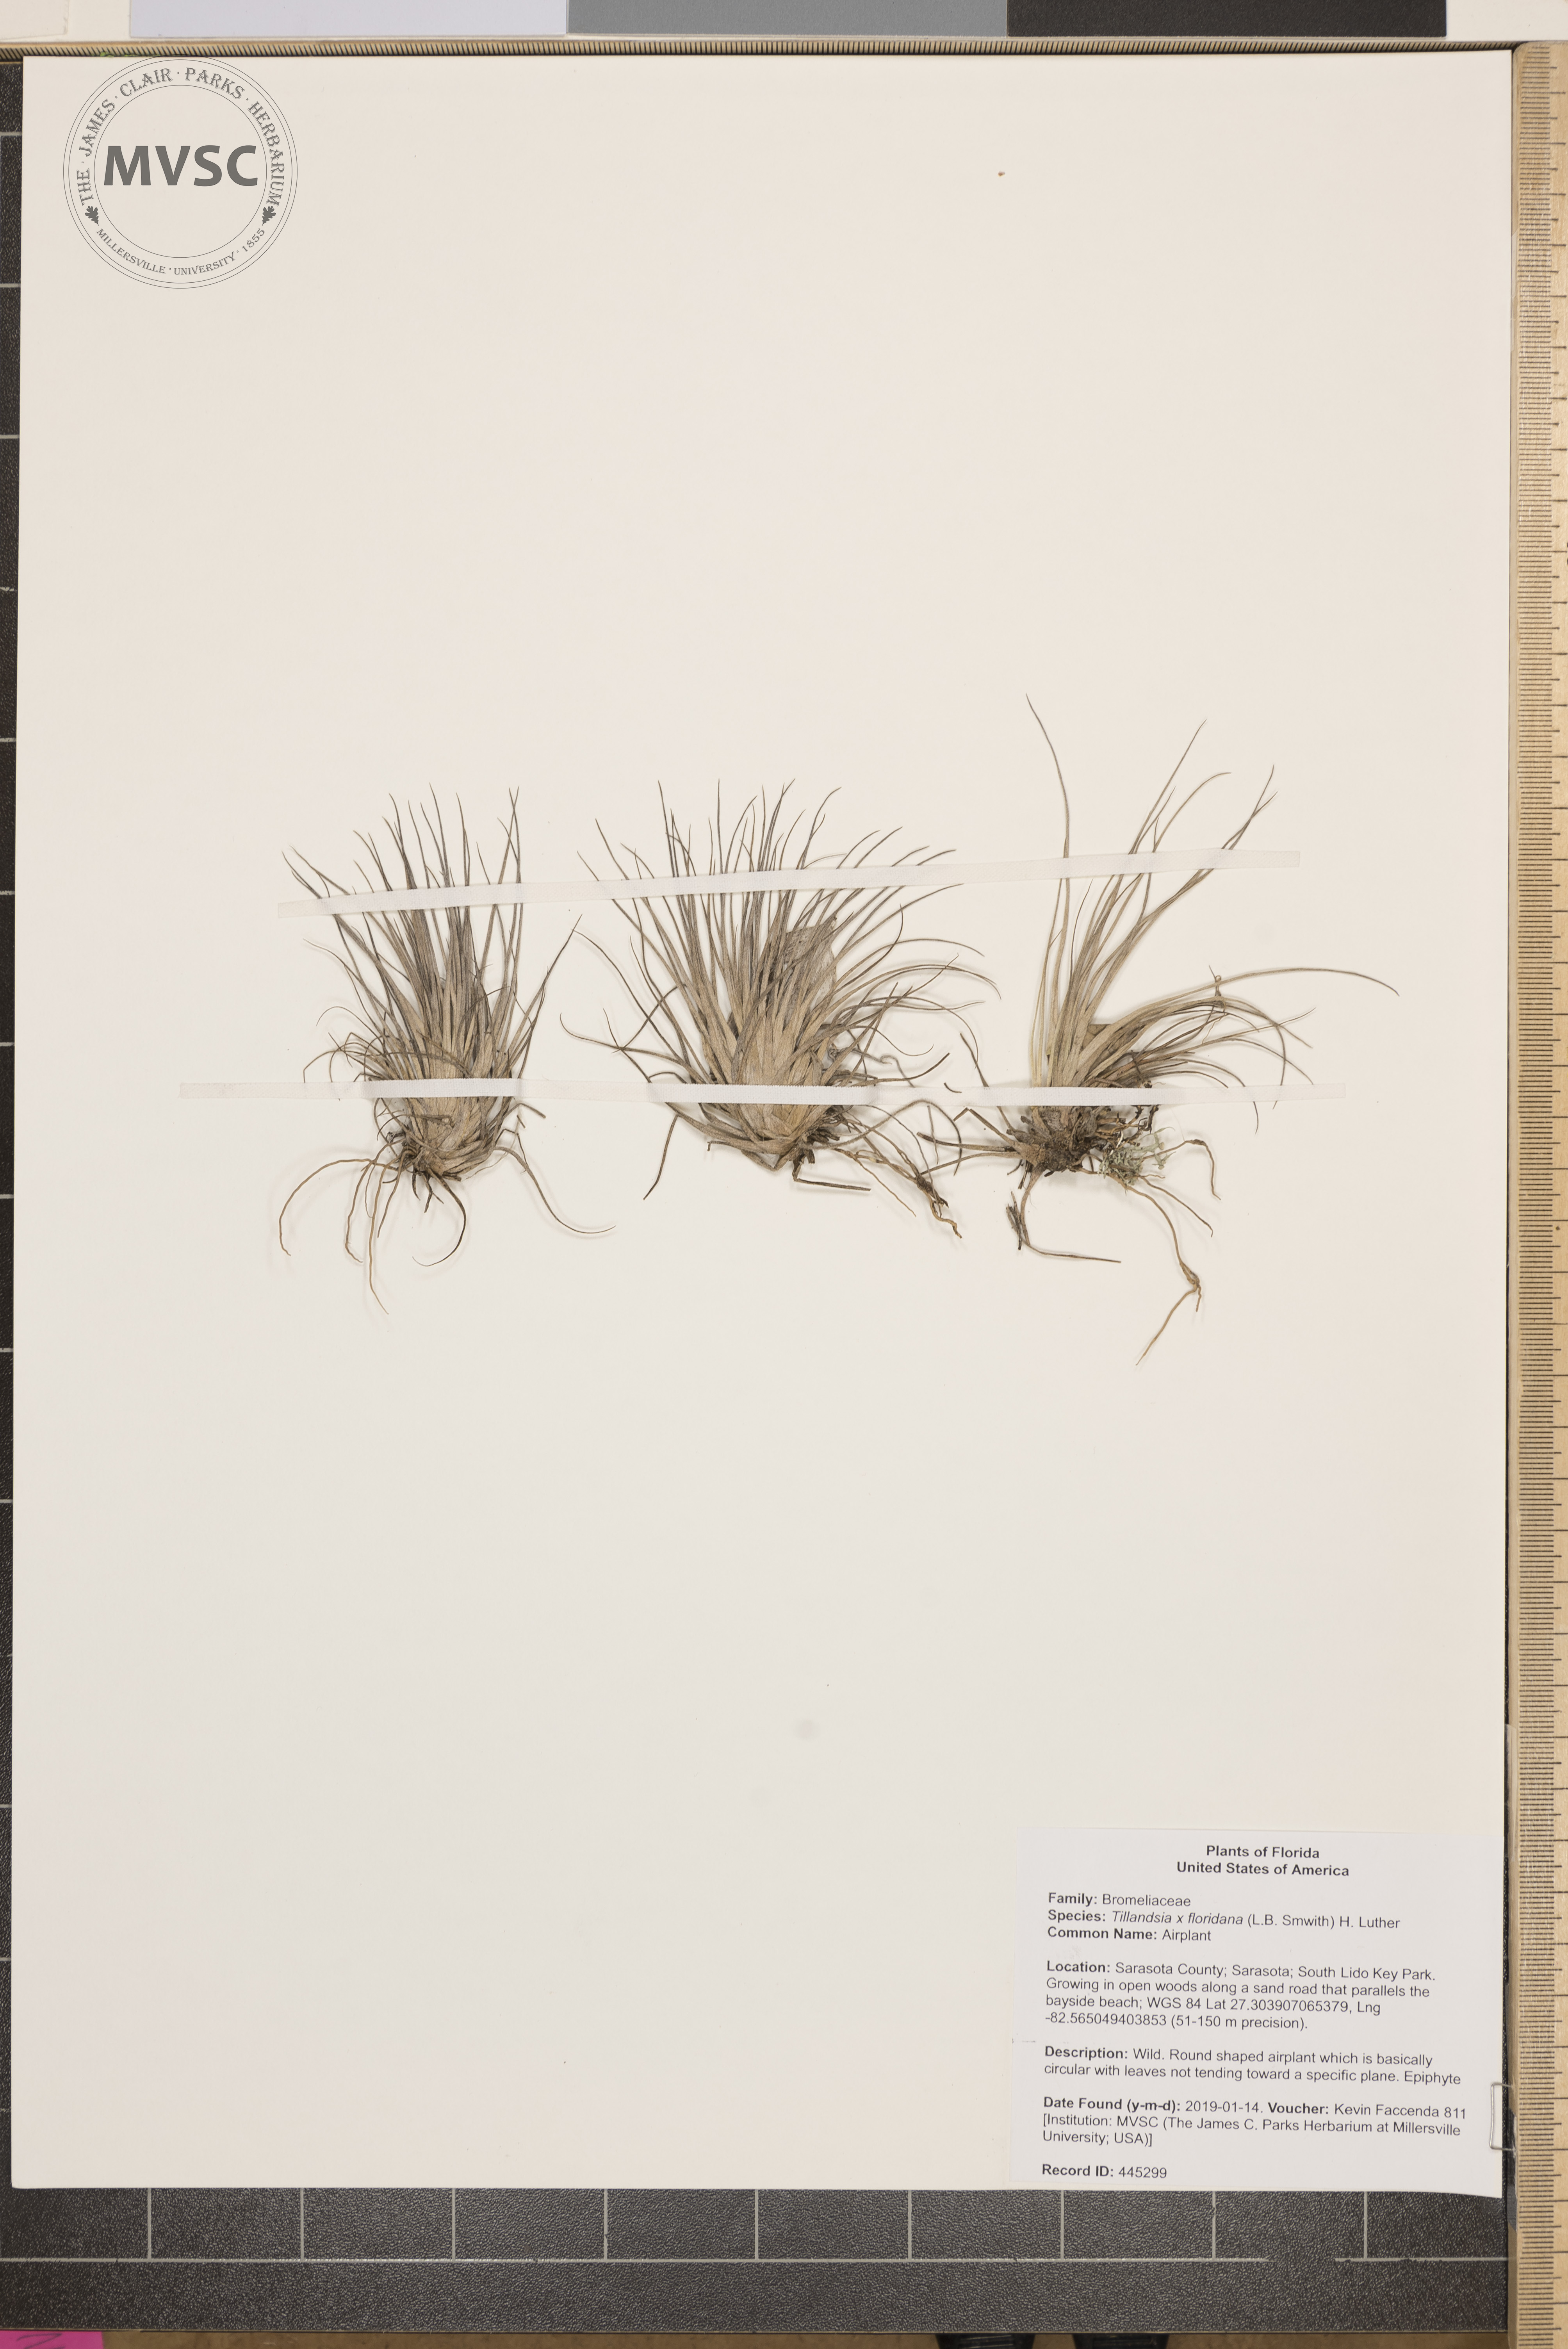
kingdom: Plantae
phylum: Tracheophyta
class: Liliopsida
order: Poales
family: Bromeliaceae
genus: Tillandsia
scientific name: Tillandsia floridana
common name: Airplant
